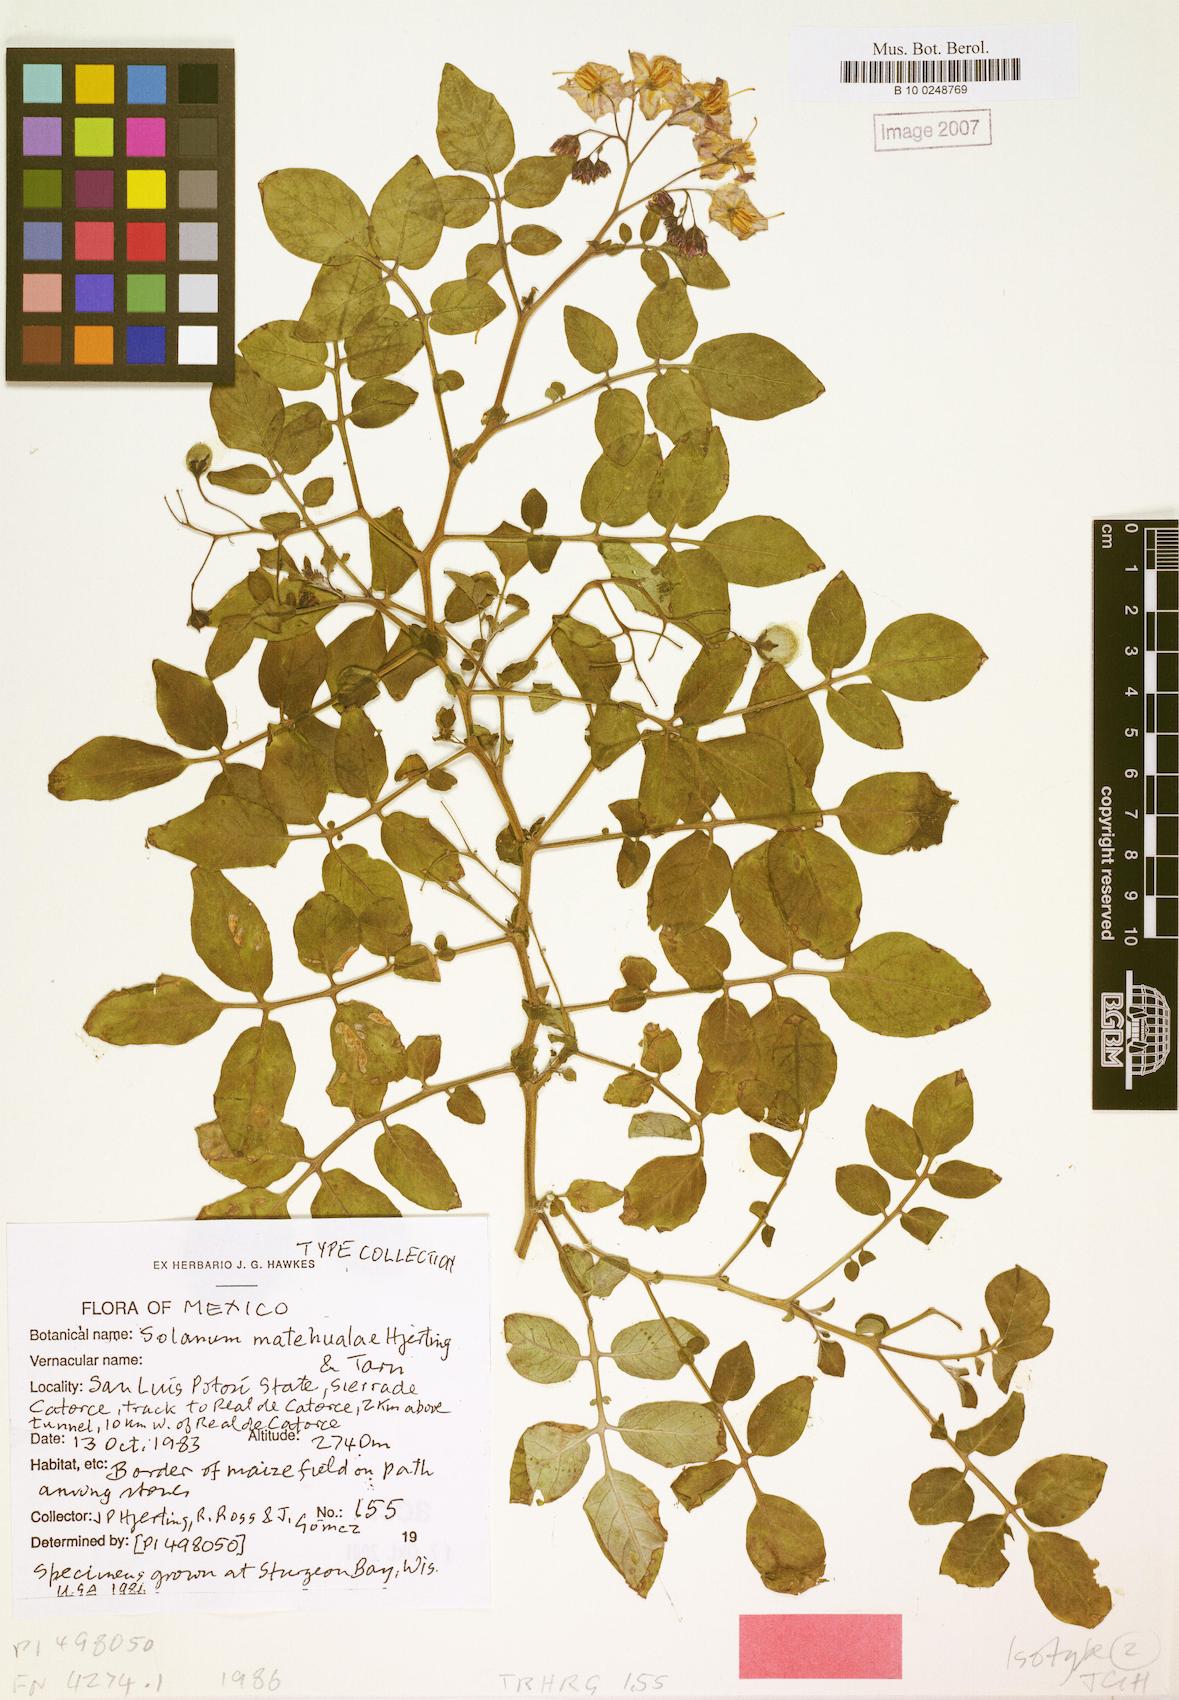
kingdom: Plantae
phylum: Tracheophyta
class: Magnoliopsida
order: Solanales
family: Solanaceae
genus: Solanum
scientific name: Solanum hjertingii
